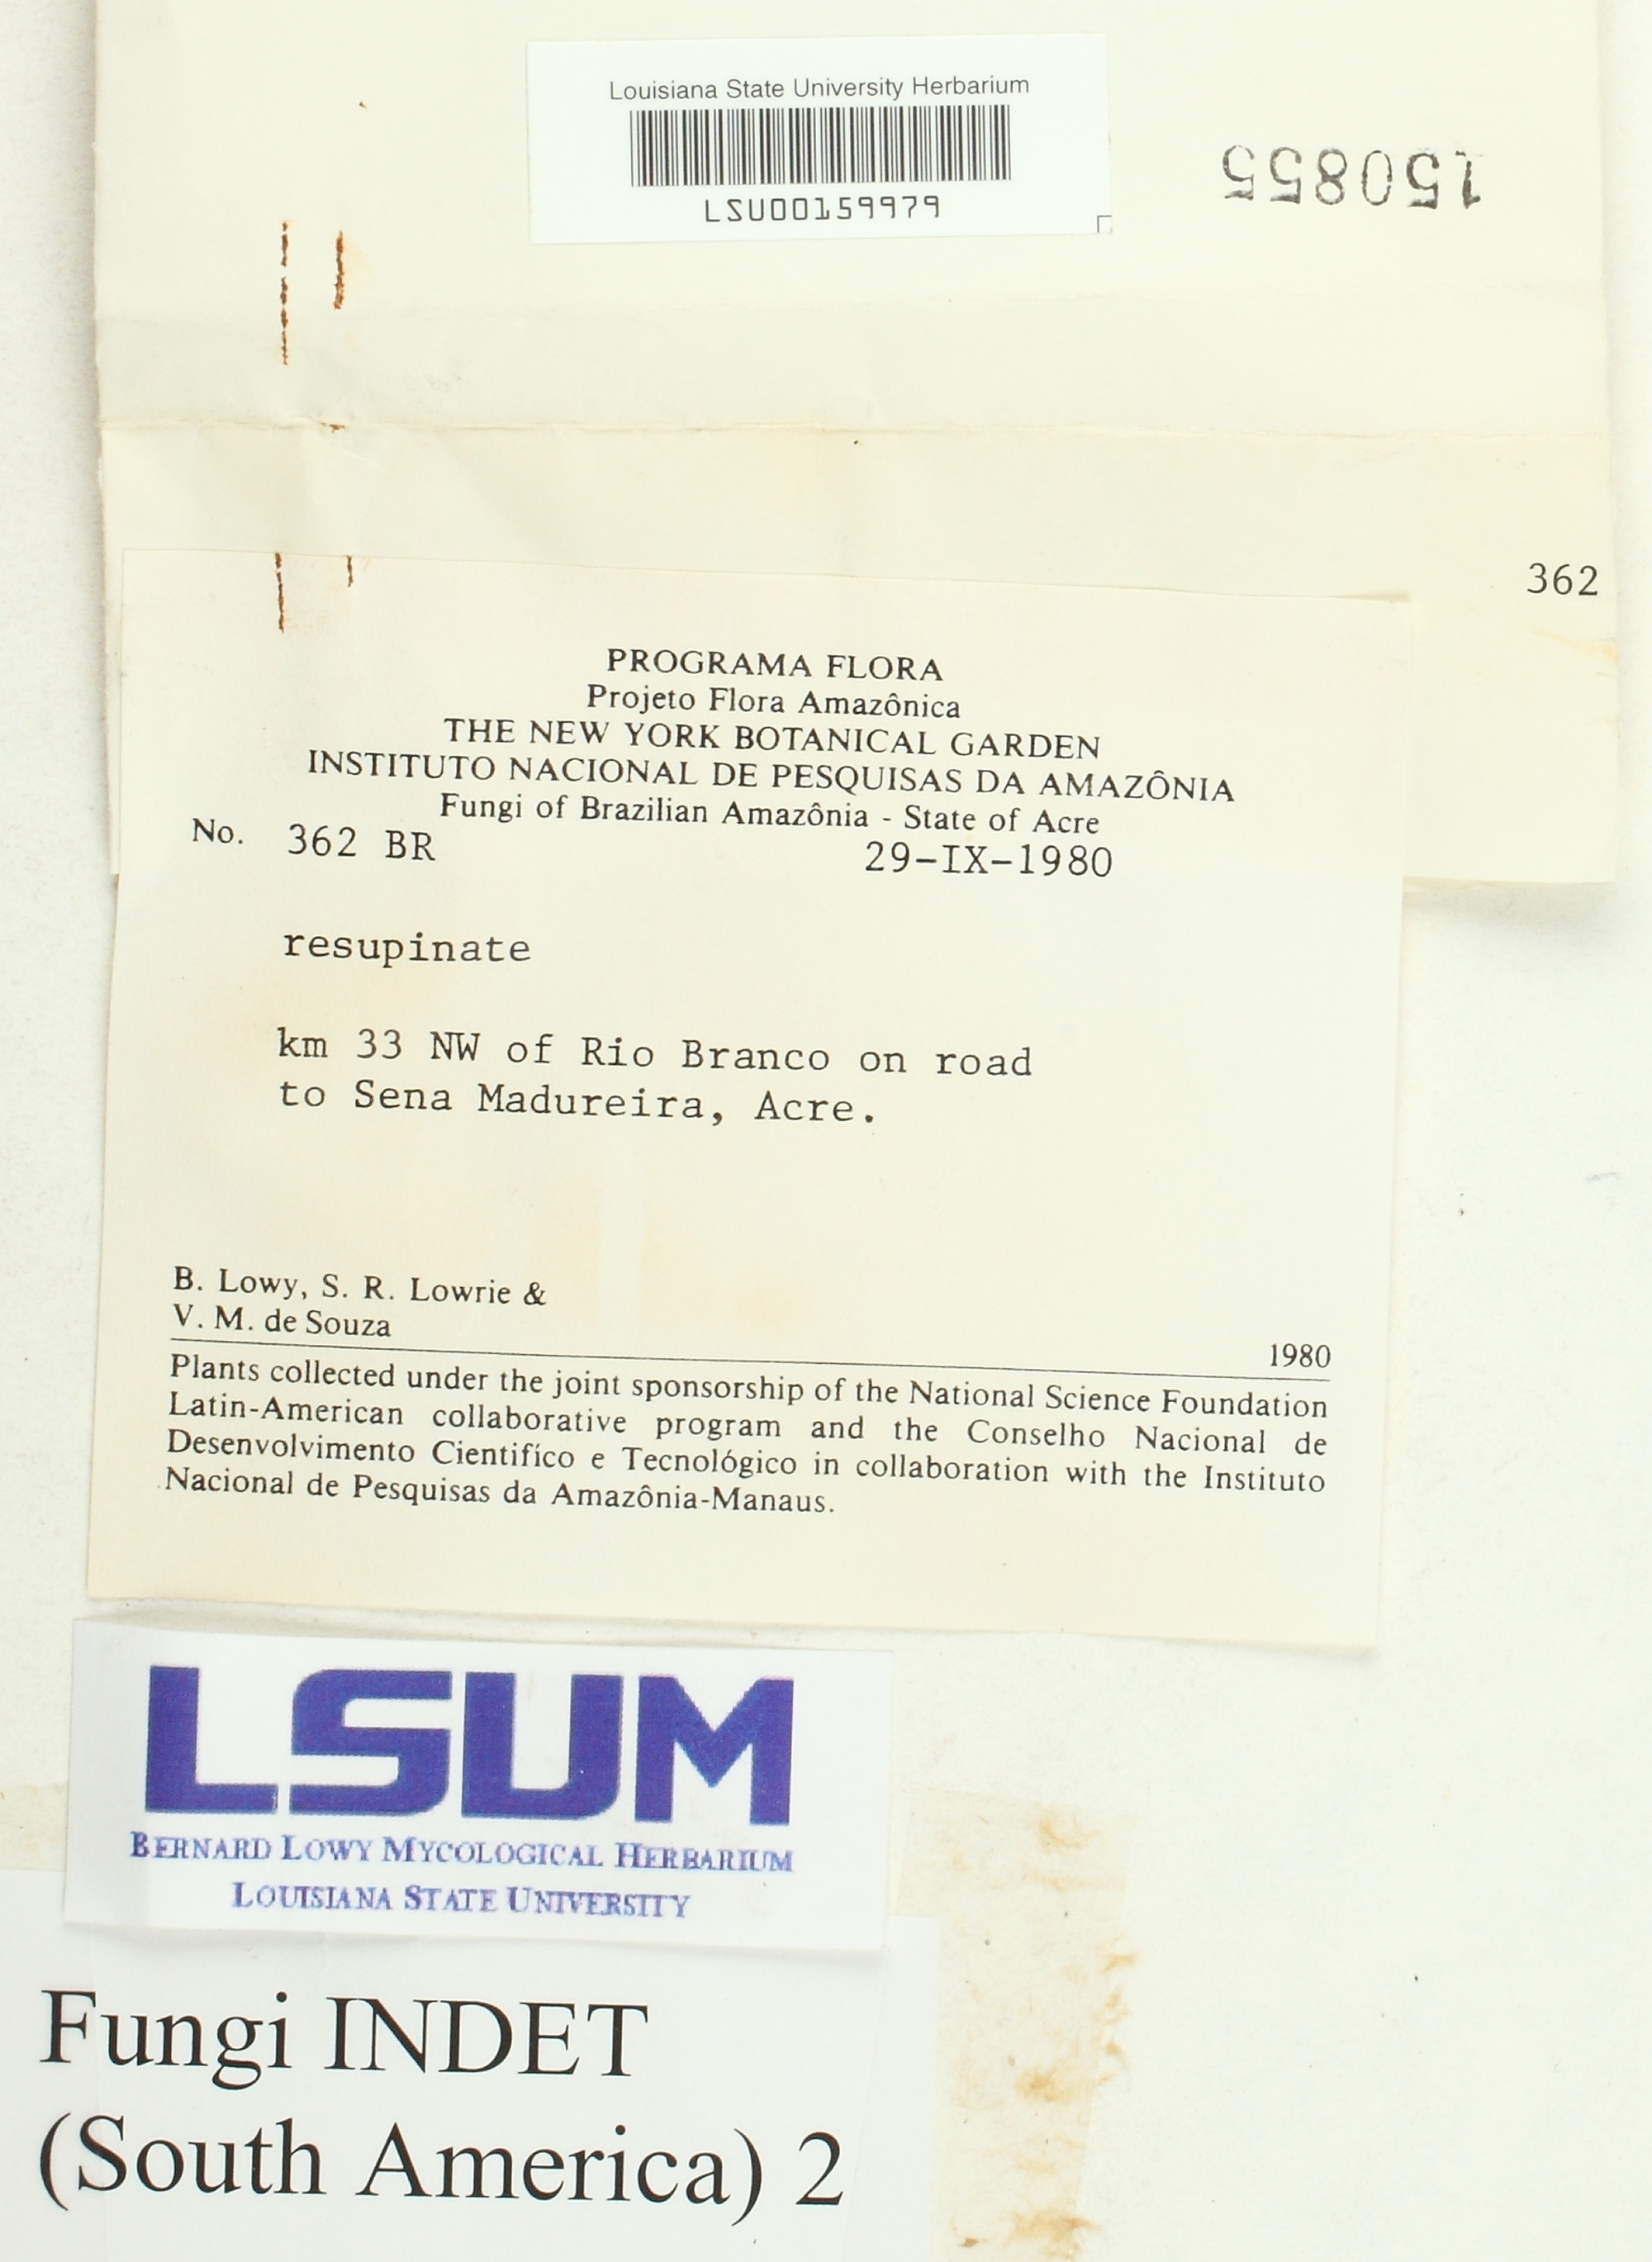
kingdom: Fungi
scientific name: Fungi
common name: Fungi
